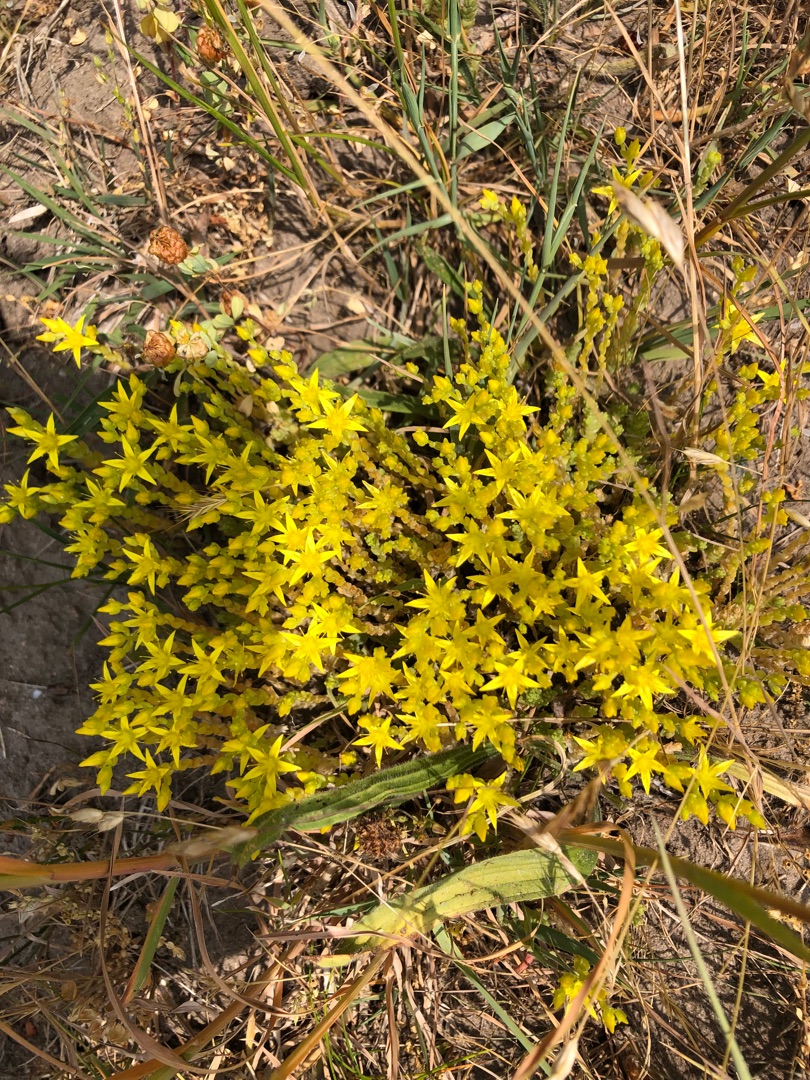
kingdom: Plantae
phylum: Tracheophyta
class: Magnoliopsida
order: Saxifragales
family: Crassulaceae
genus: Sedum
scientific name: Sedum acre
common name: Bidende stenurt
